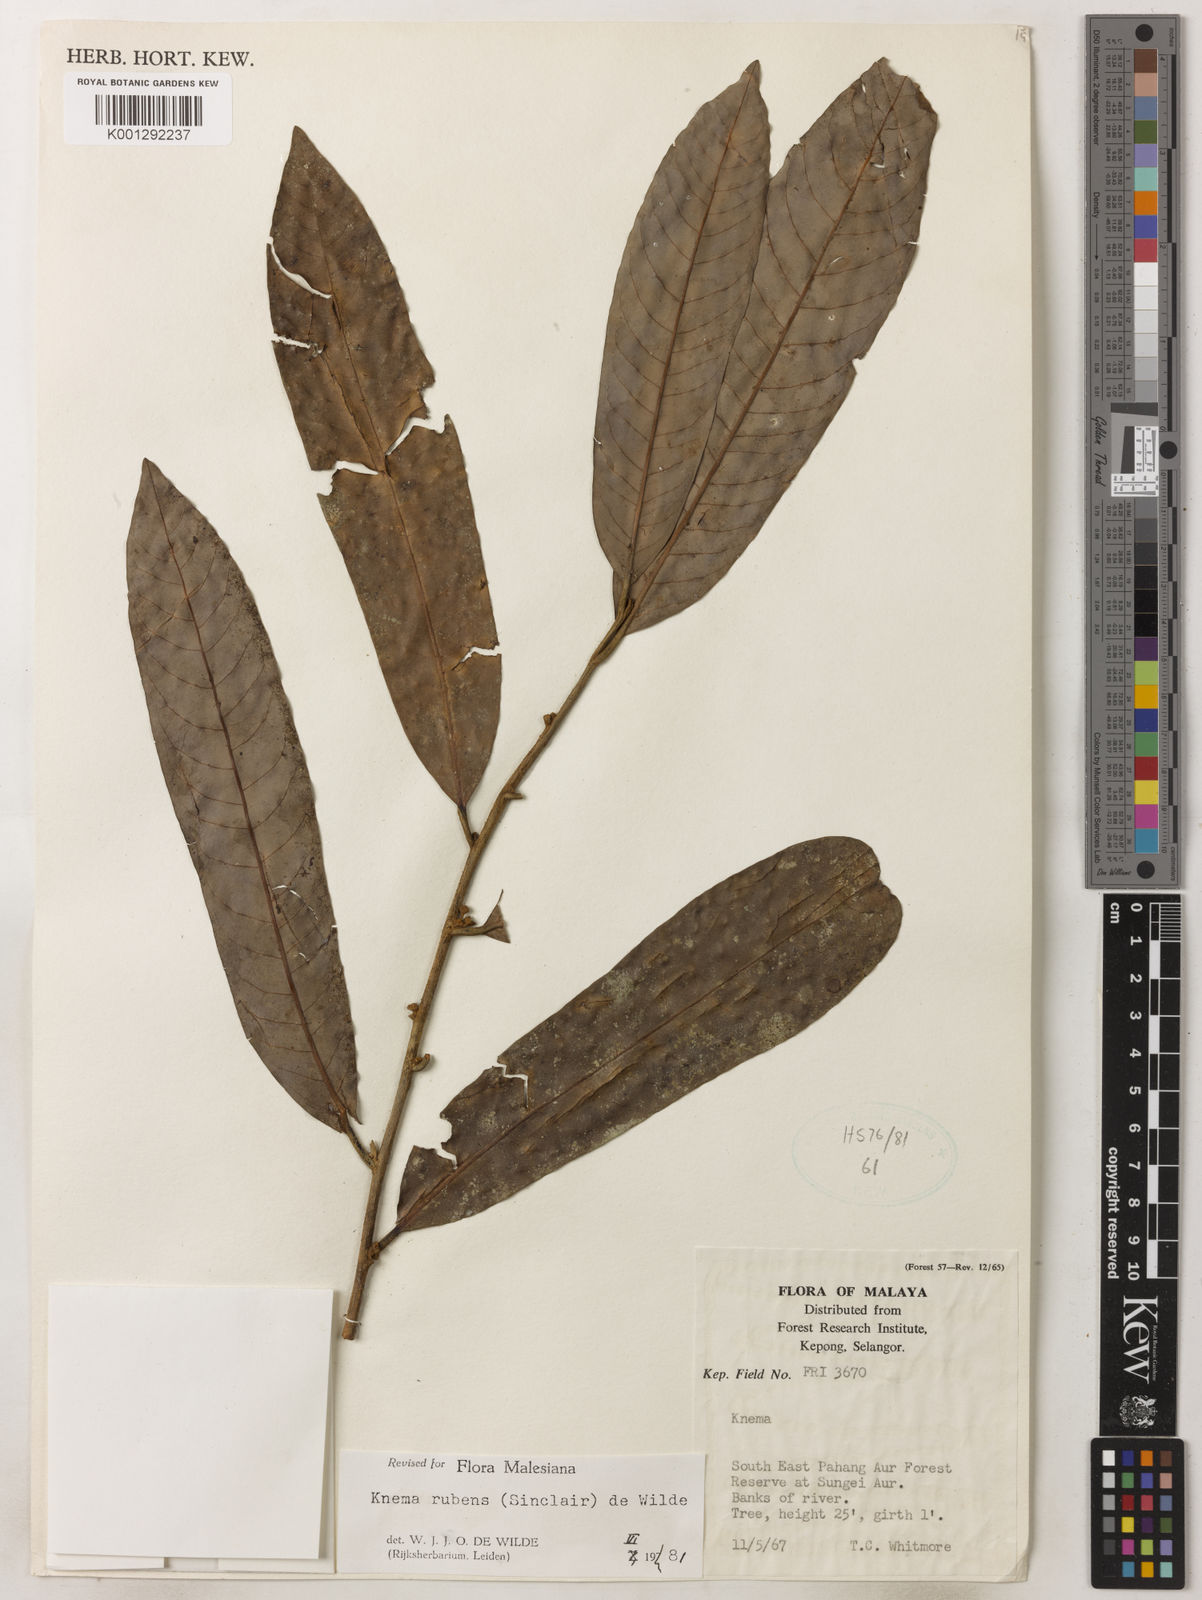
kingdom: Plantae
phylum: Tracheophyta
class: Magnoliopsida
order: Magnoliales
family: Myristicaceae
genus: Knema
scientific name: Knema rubens
